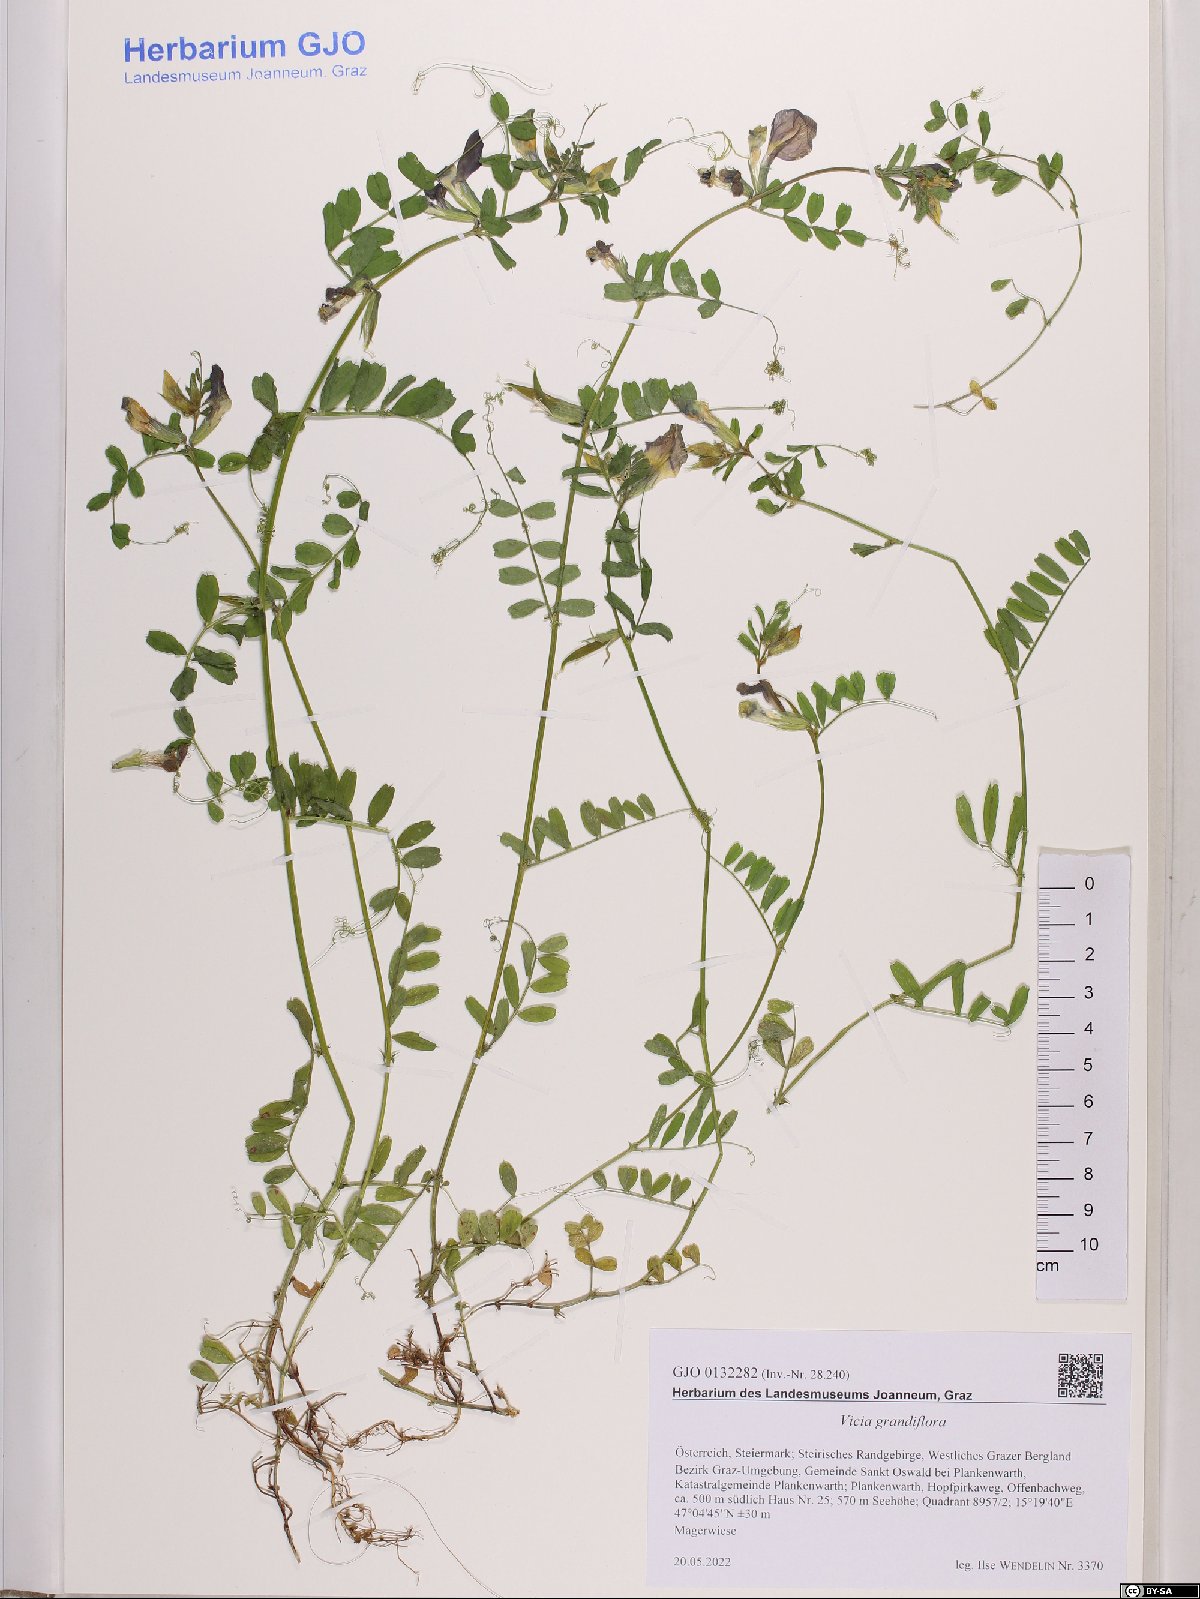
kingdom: Plantae
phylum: Tracheophyta
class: Magnoliopsida
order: Fabales
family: Fabaceae
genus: Vicia
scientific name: Vicia grandiflora
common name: Large yellow vetch
